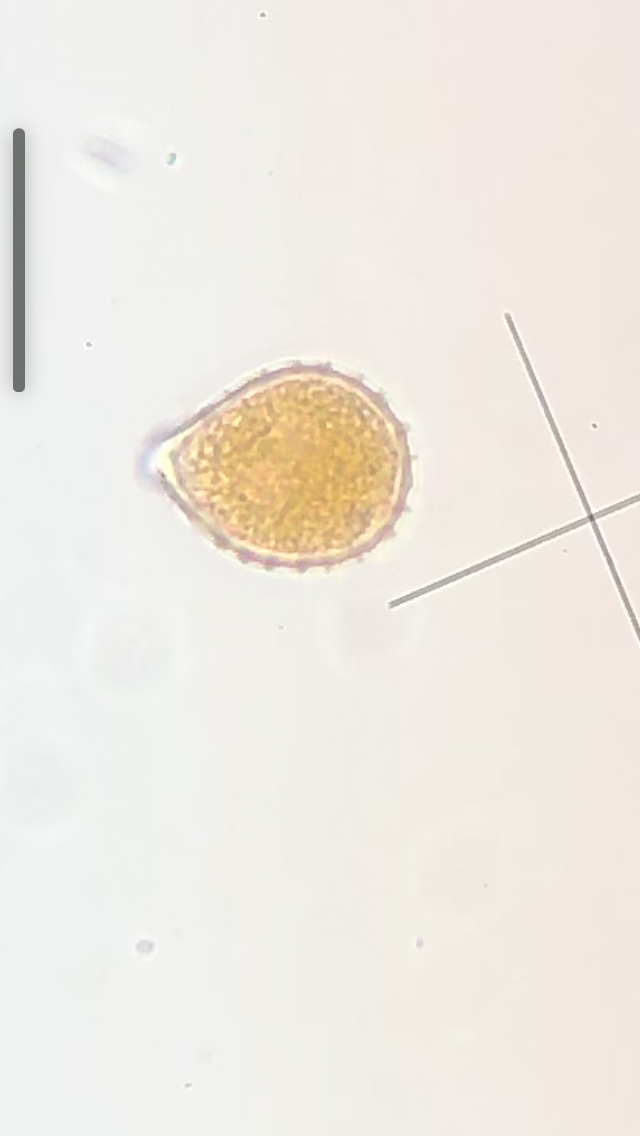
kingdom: Fungi
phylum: Basidiomycota
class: Pucciniomycetes
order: Pucciniales
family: Pucciniaceae
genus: Puccinia
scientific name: Puccinia obscura
